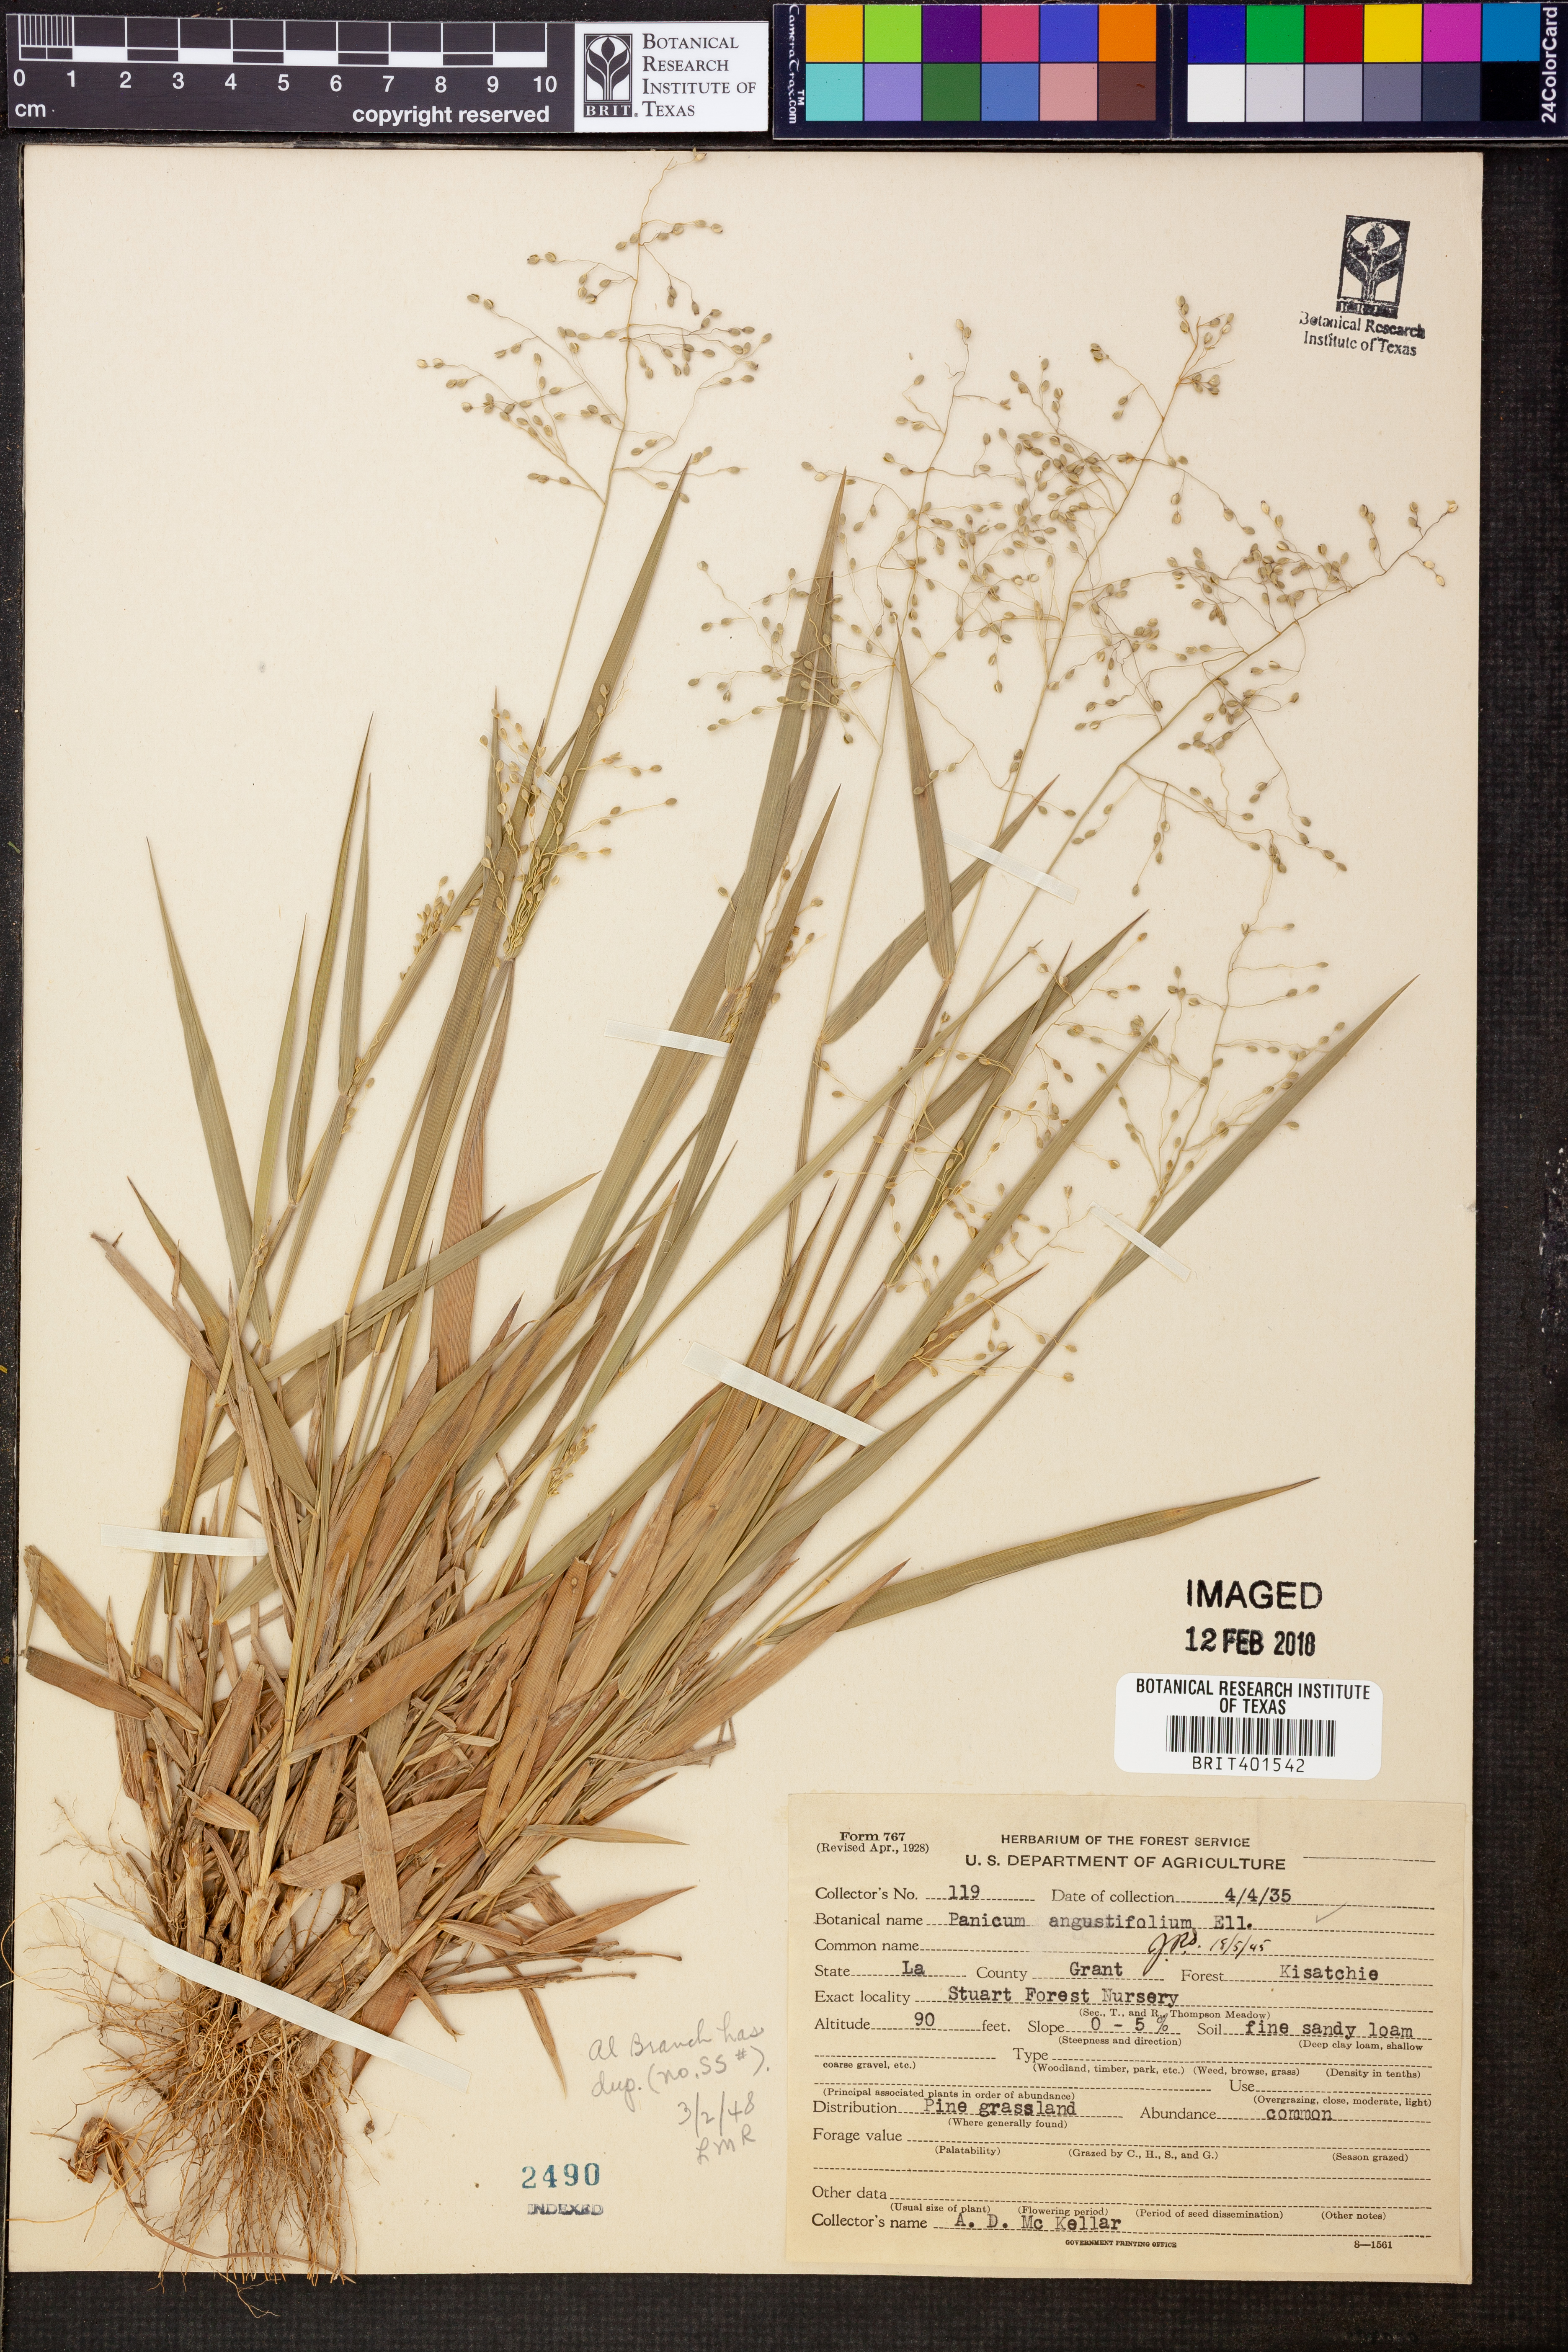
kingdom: Plantae
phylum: Tracheophyta
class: Liliopsida
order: Poales
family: Poaceae
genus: Dichanthelium
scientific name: Dichanthelium dichotomum
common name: Cypress panicgrass
